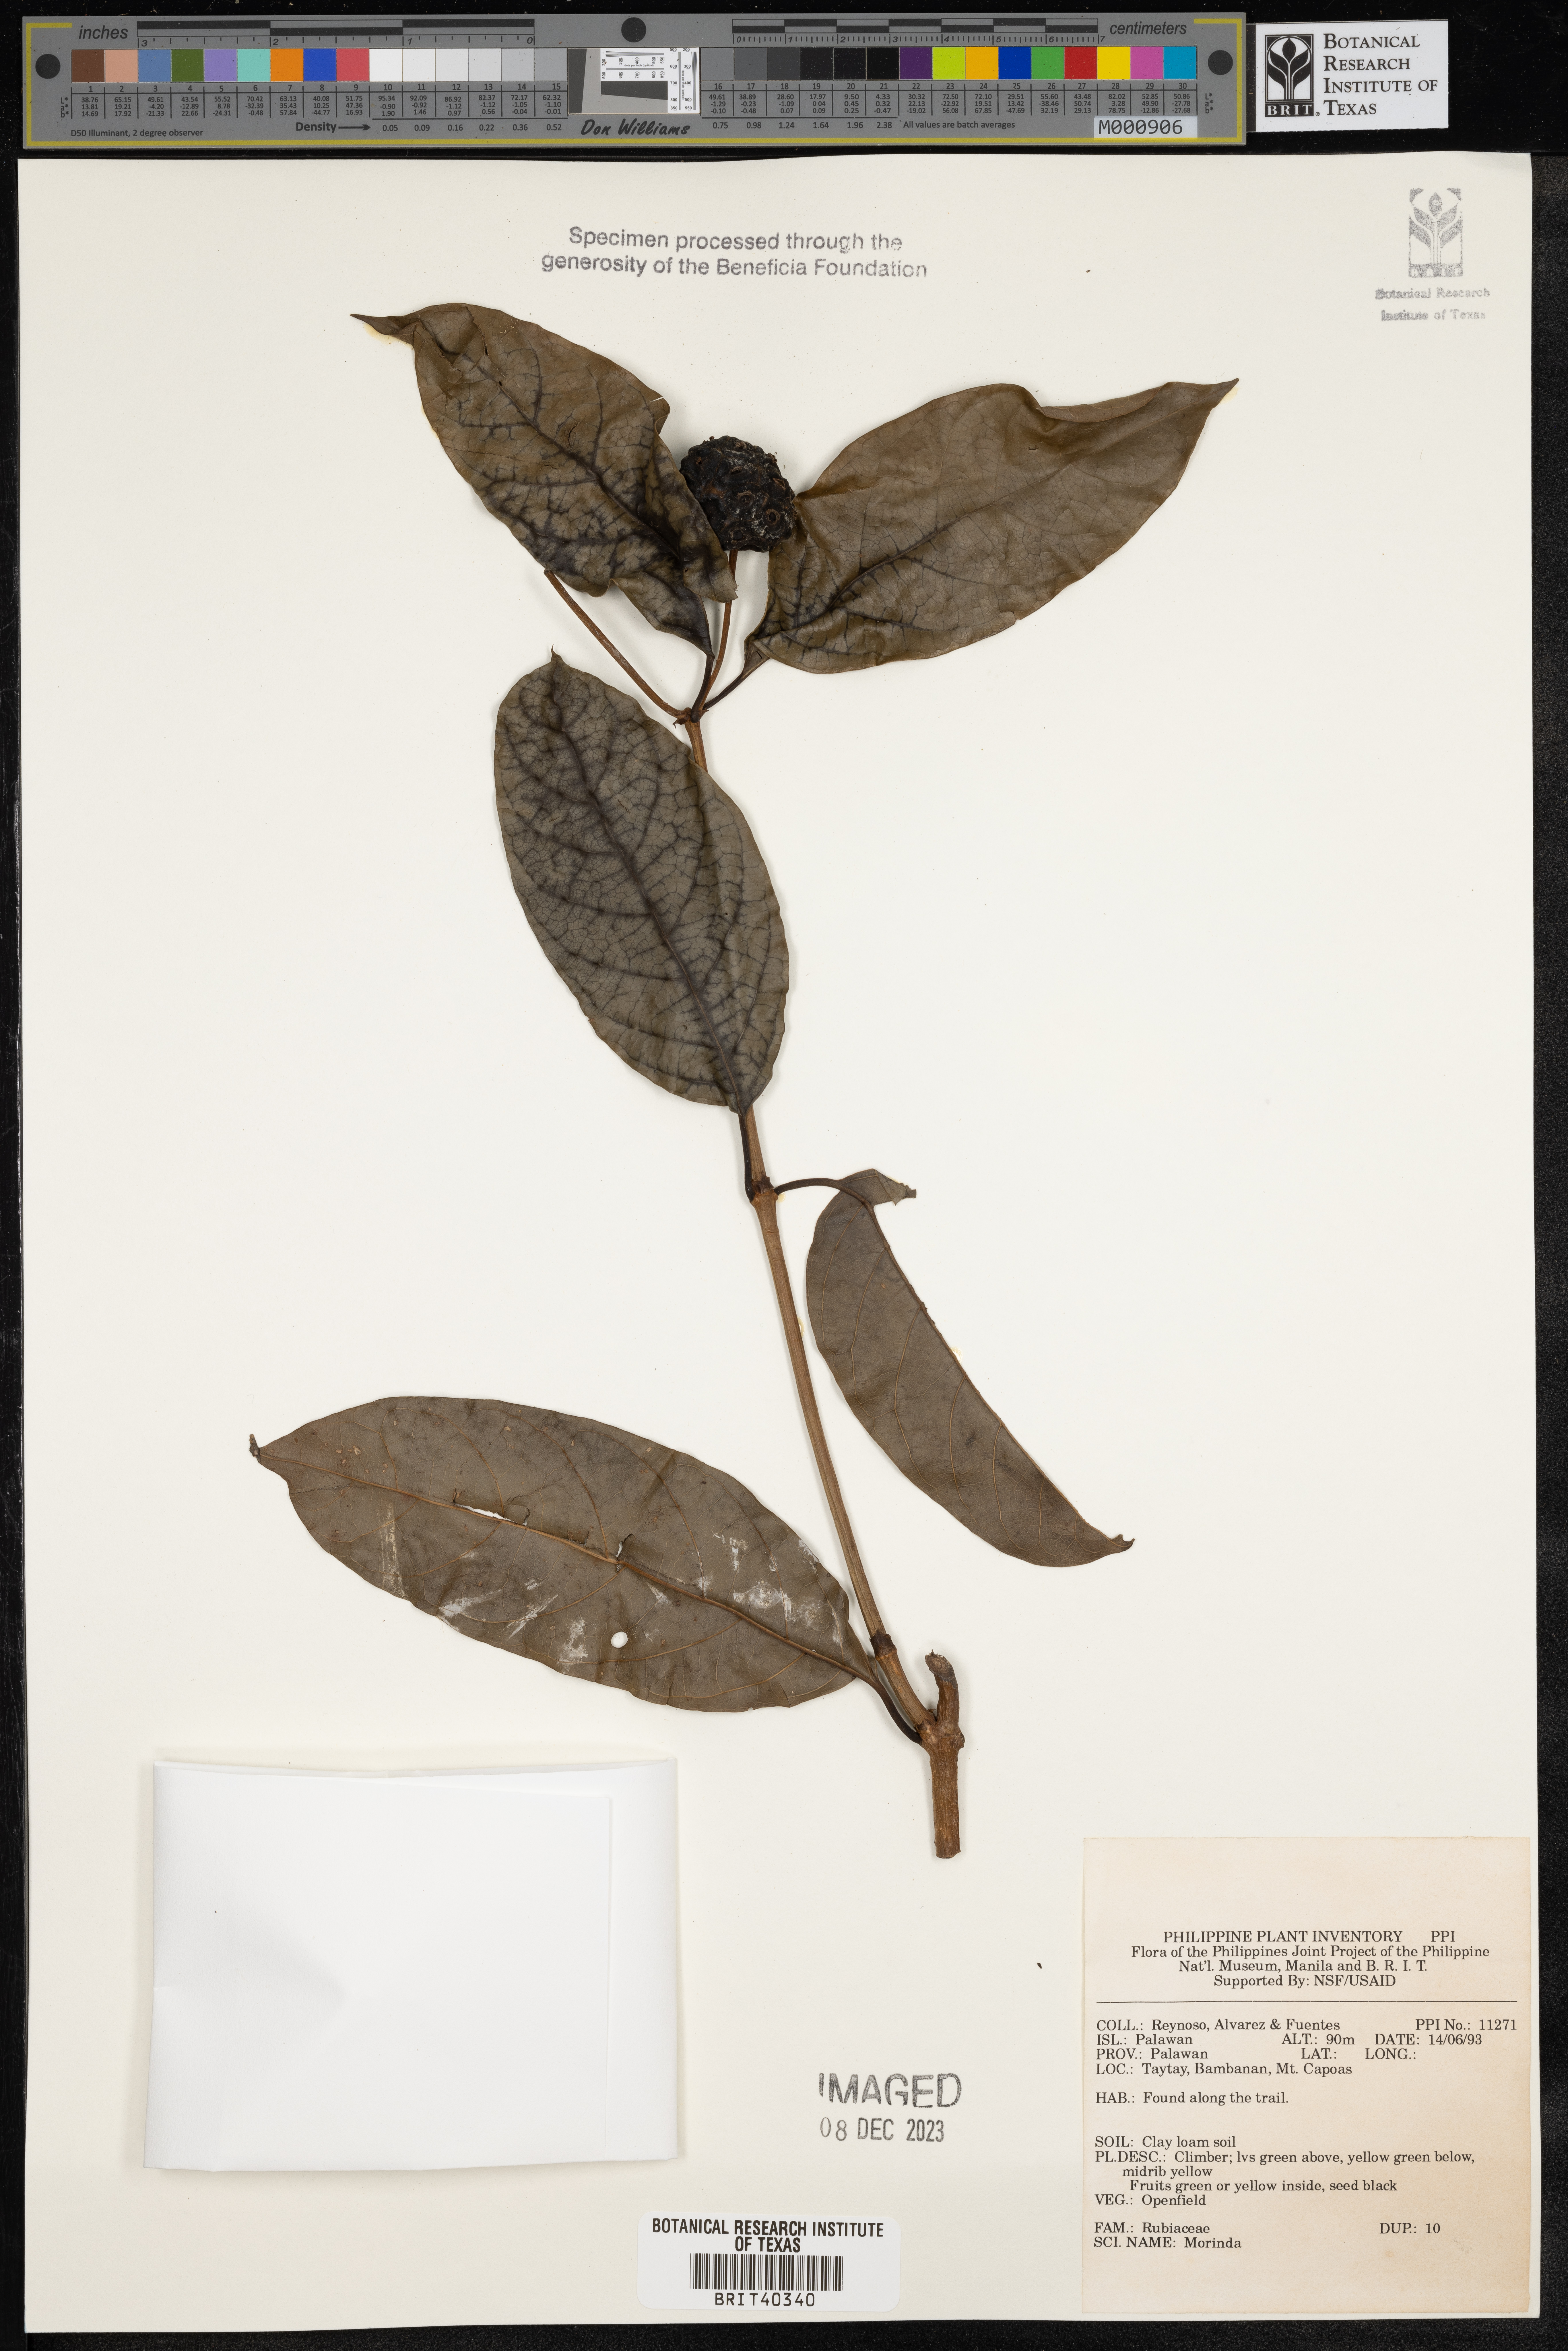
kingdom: Plantae
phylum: Tracheophyta
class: Magnoliopsida
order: Gentianales
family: Rubiaceae
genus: Morinda
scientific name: Morinda
